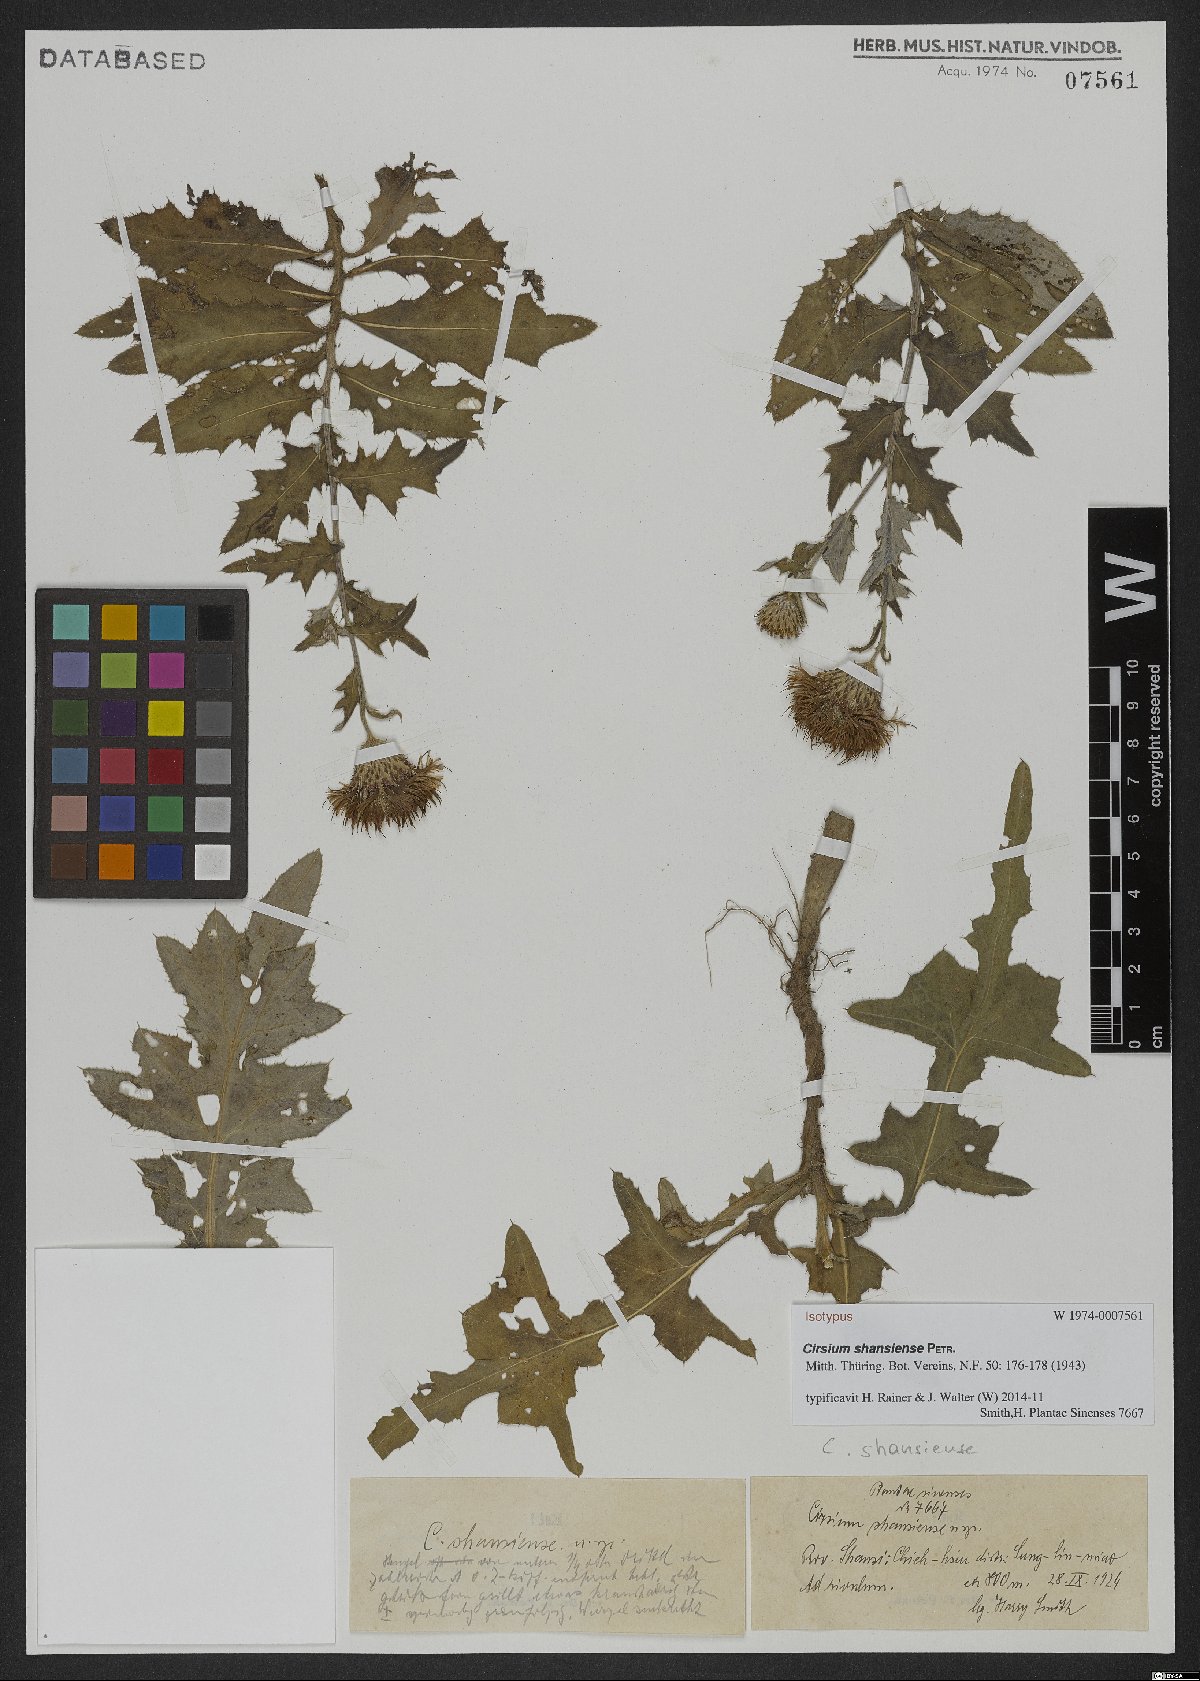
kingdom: Plantae
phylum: Tracheophyta
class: Magnoliopsida
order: Asterales
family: Asteraceae
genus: Cirsium
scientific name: Cirsium shansiense
